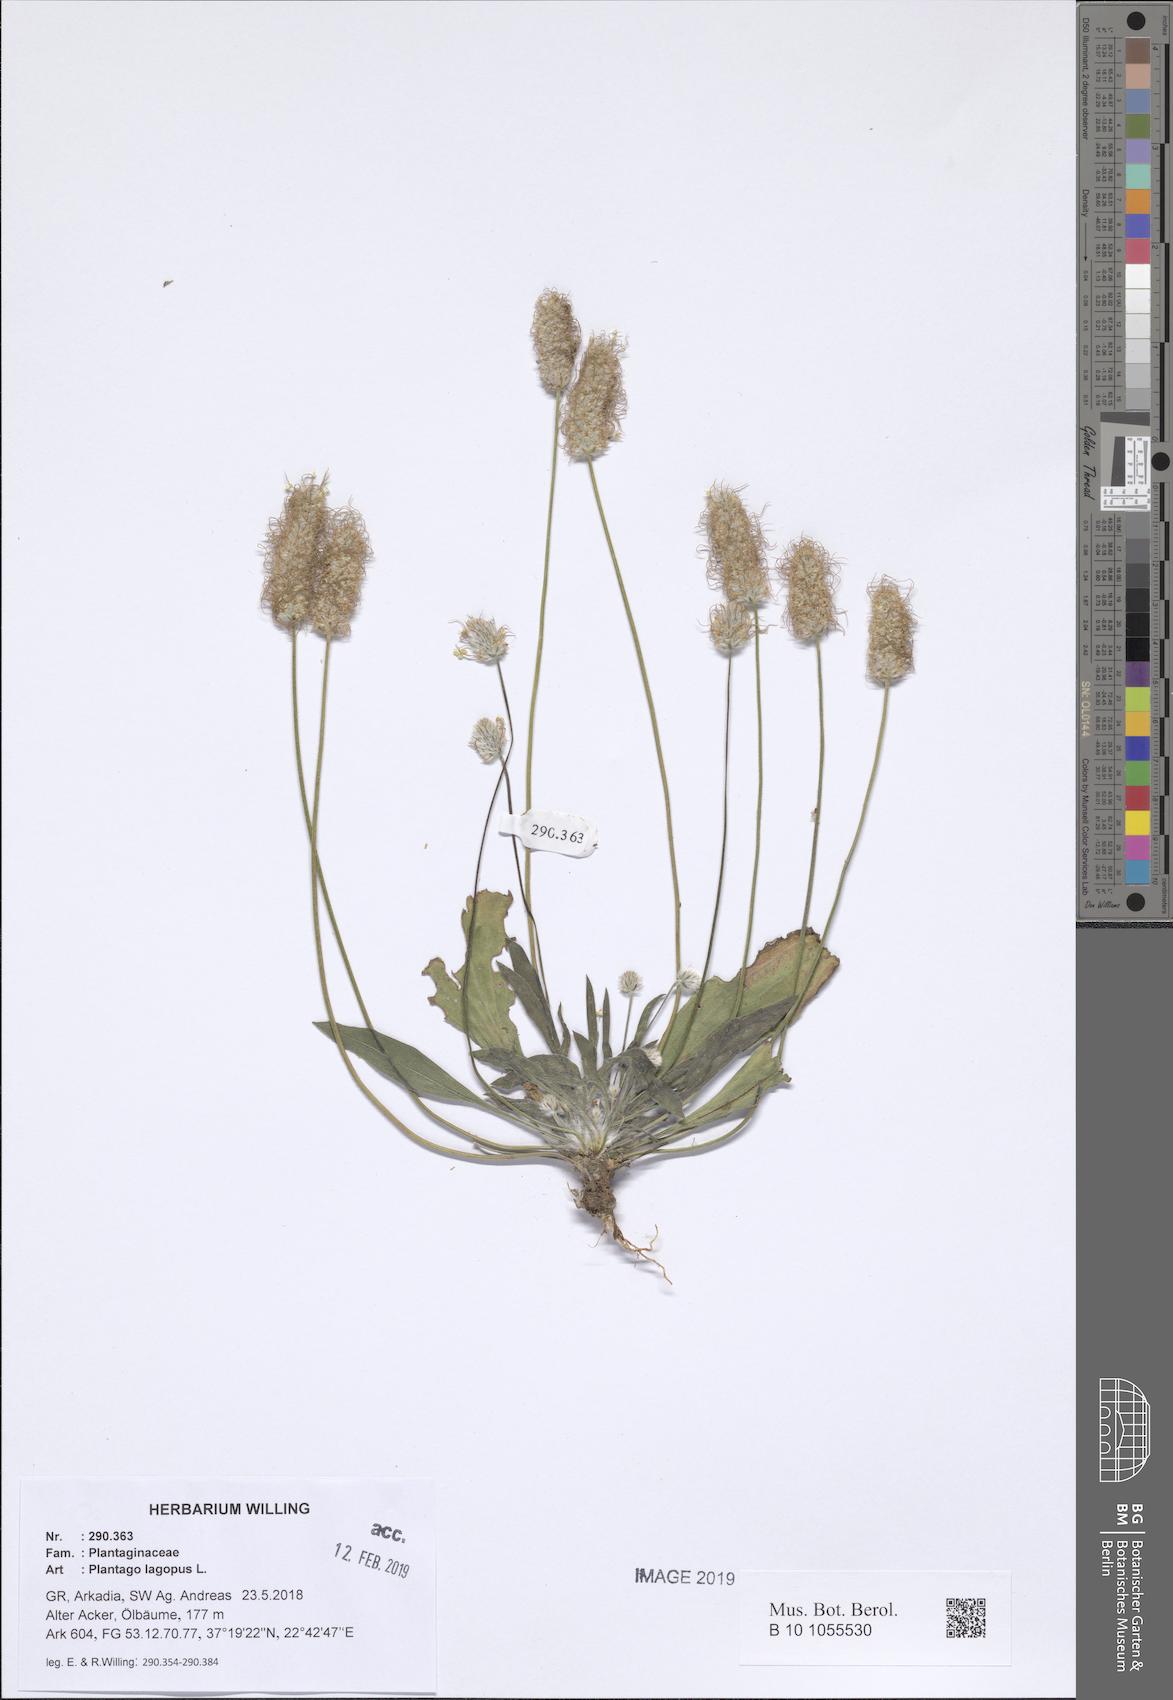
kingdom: Plantae
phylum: Tracheophyta
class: Magnoliopsida
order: Lamiales
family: Plantaginaceae
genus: Plantago
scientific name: Plantago lagopus
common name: Hare-foot plantain
